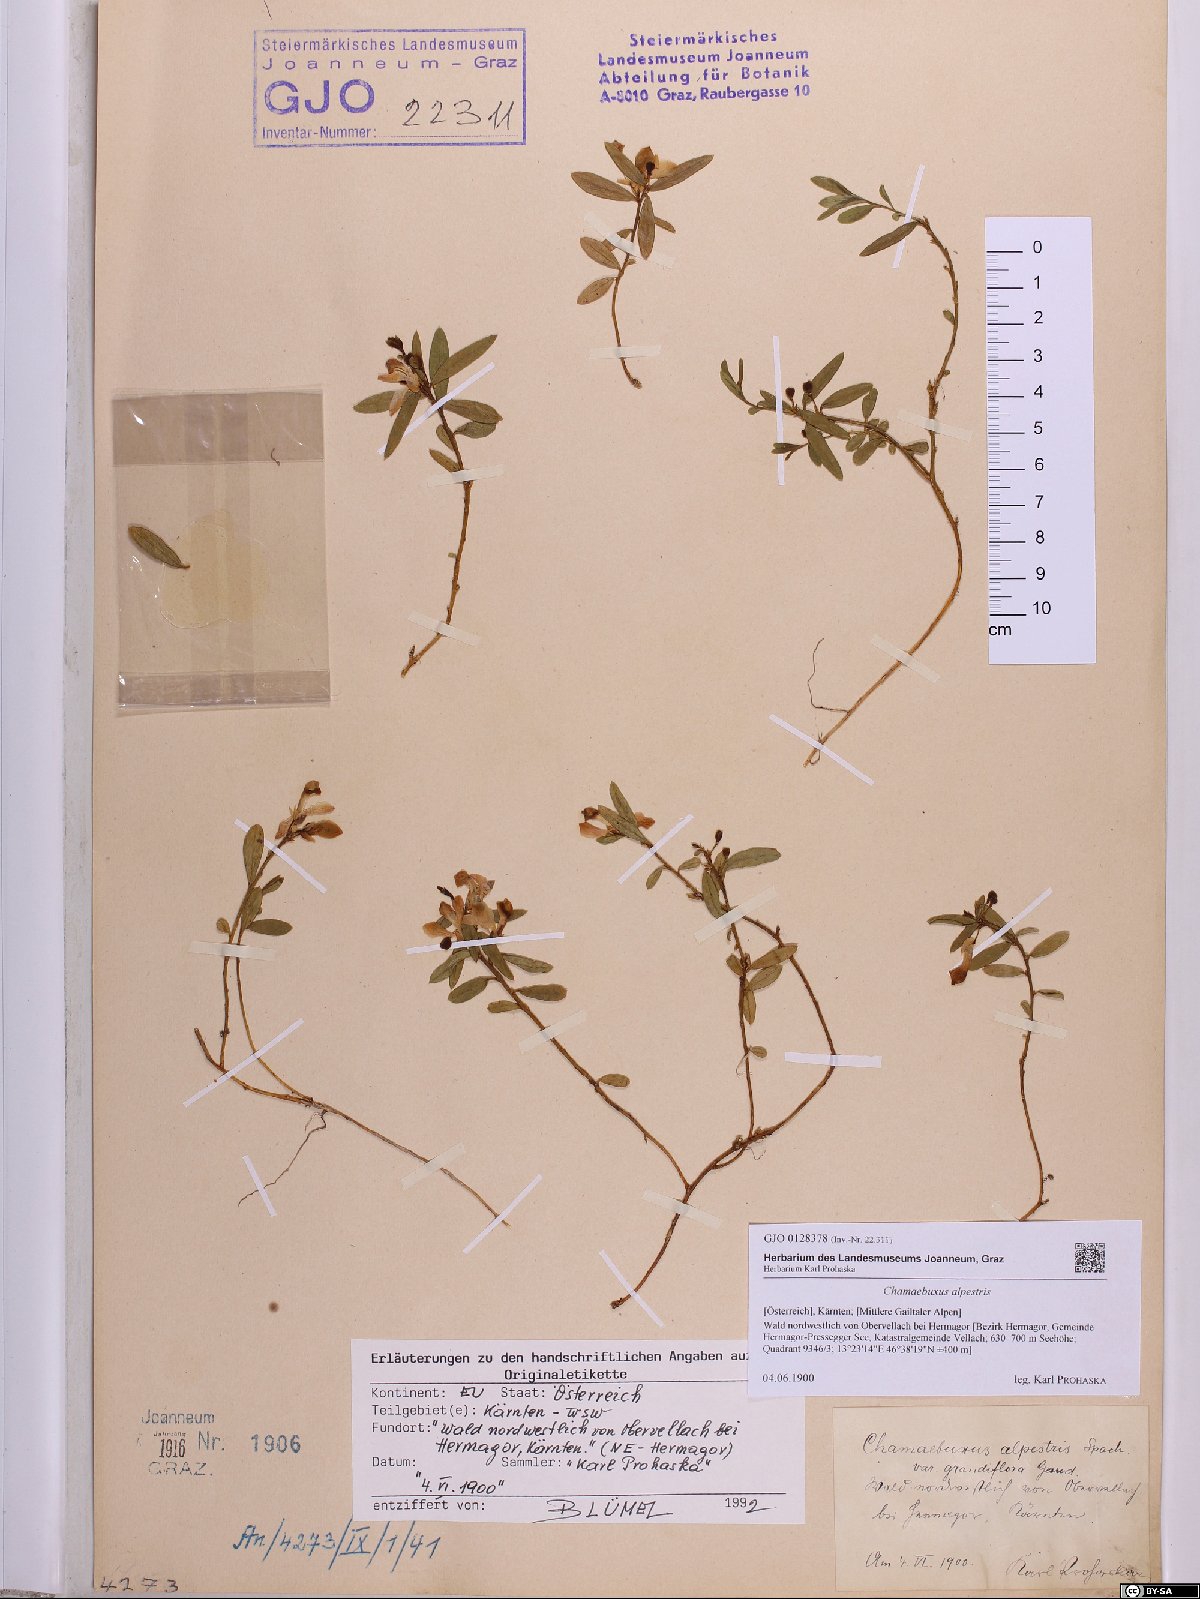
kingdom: Plantae
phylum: Tracheophyta
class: Magnoliopsida
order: Fabales
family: Polygalaceae
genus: Polygaloides
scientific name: Polygaloides chamaebuxus
